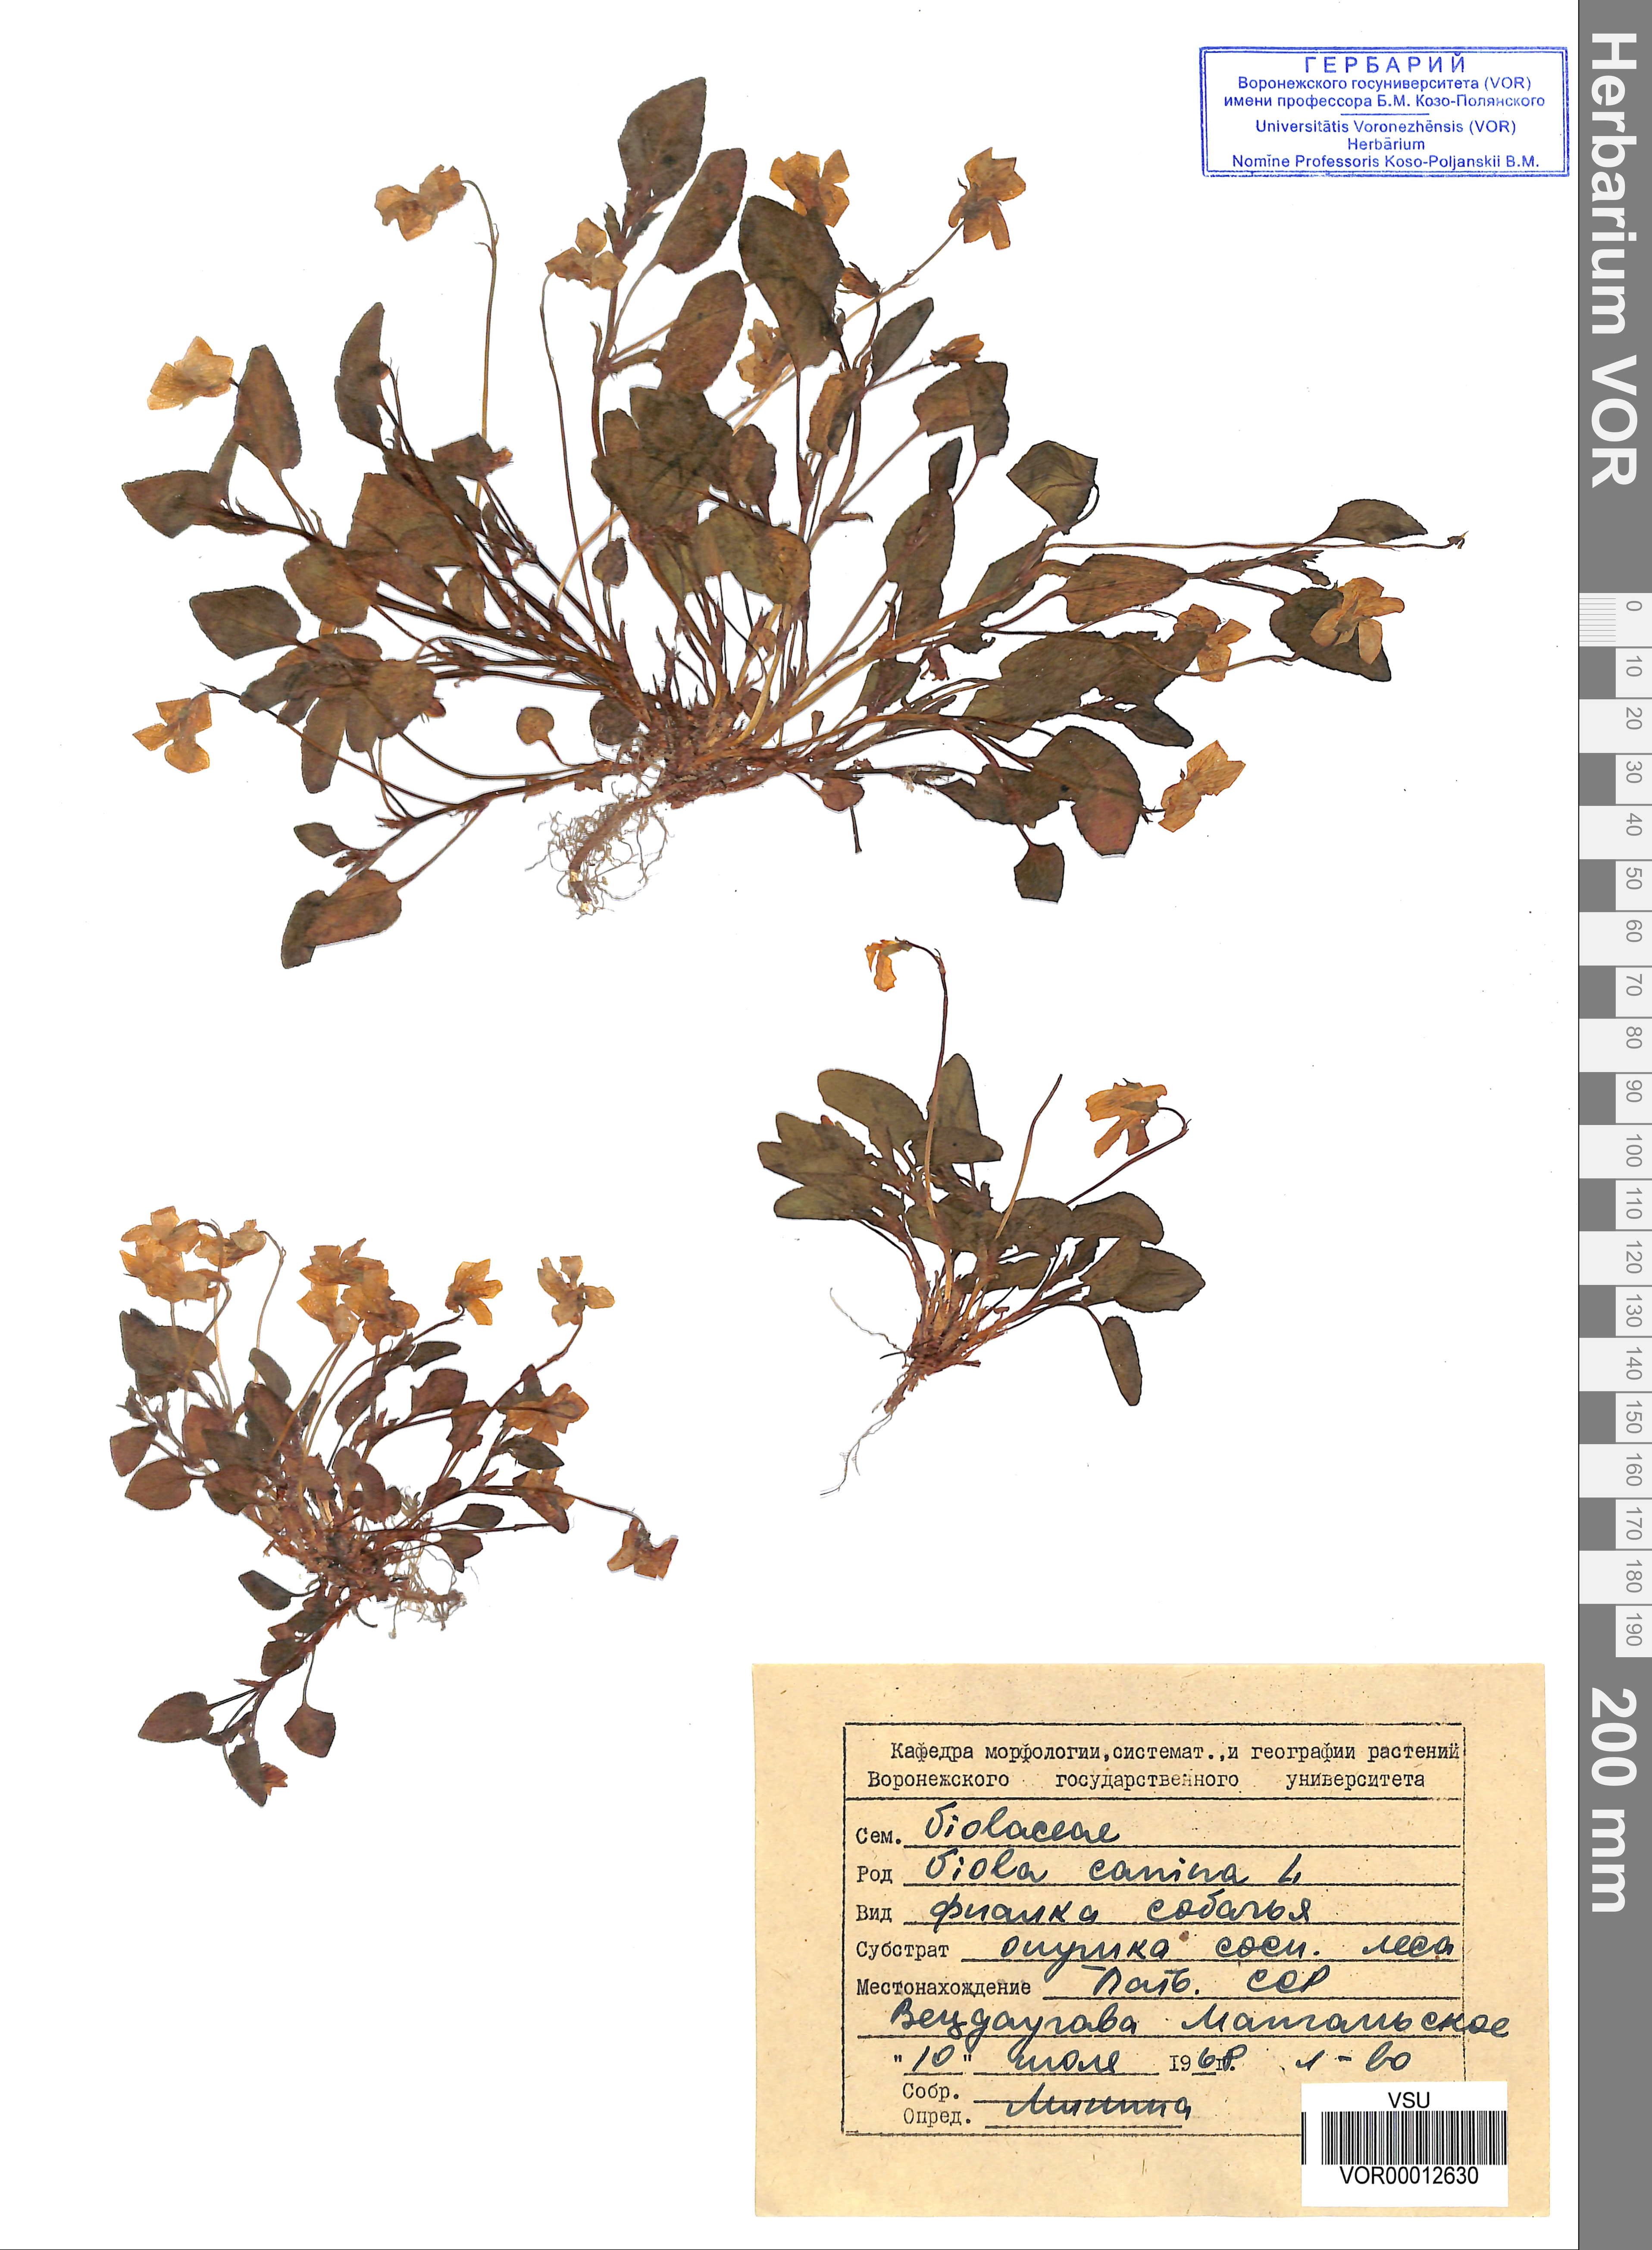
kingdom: Plantae
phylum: Tracheophyta
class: Magnoliopsida
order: Malpighiales
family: Violaceae
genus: Viola
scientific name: Viola canina
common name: Heath dog-violet
